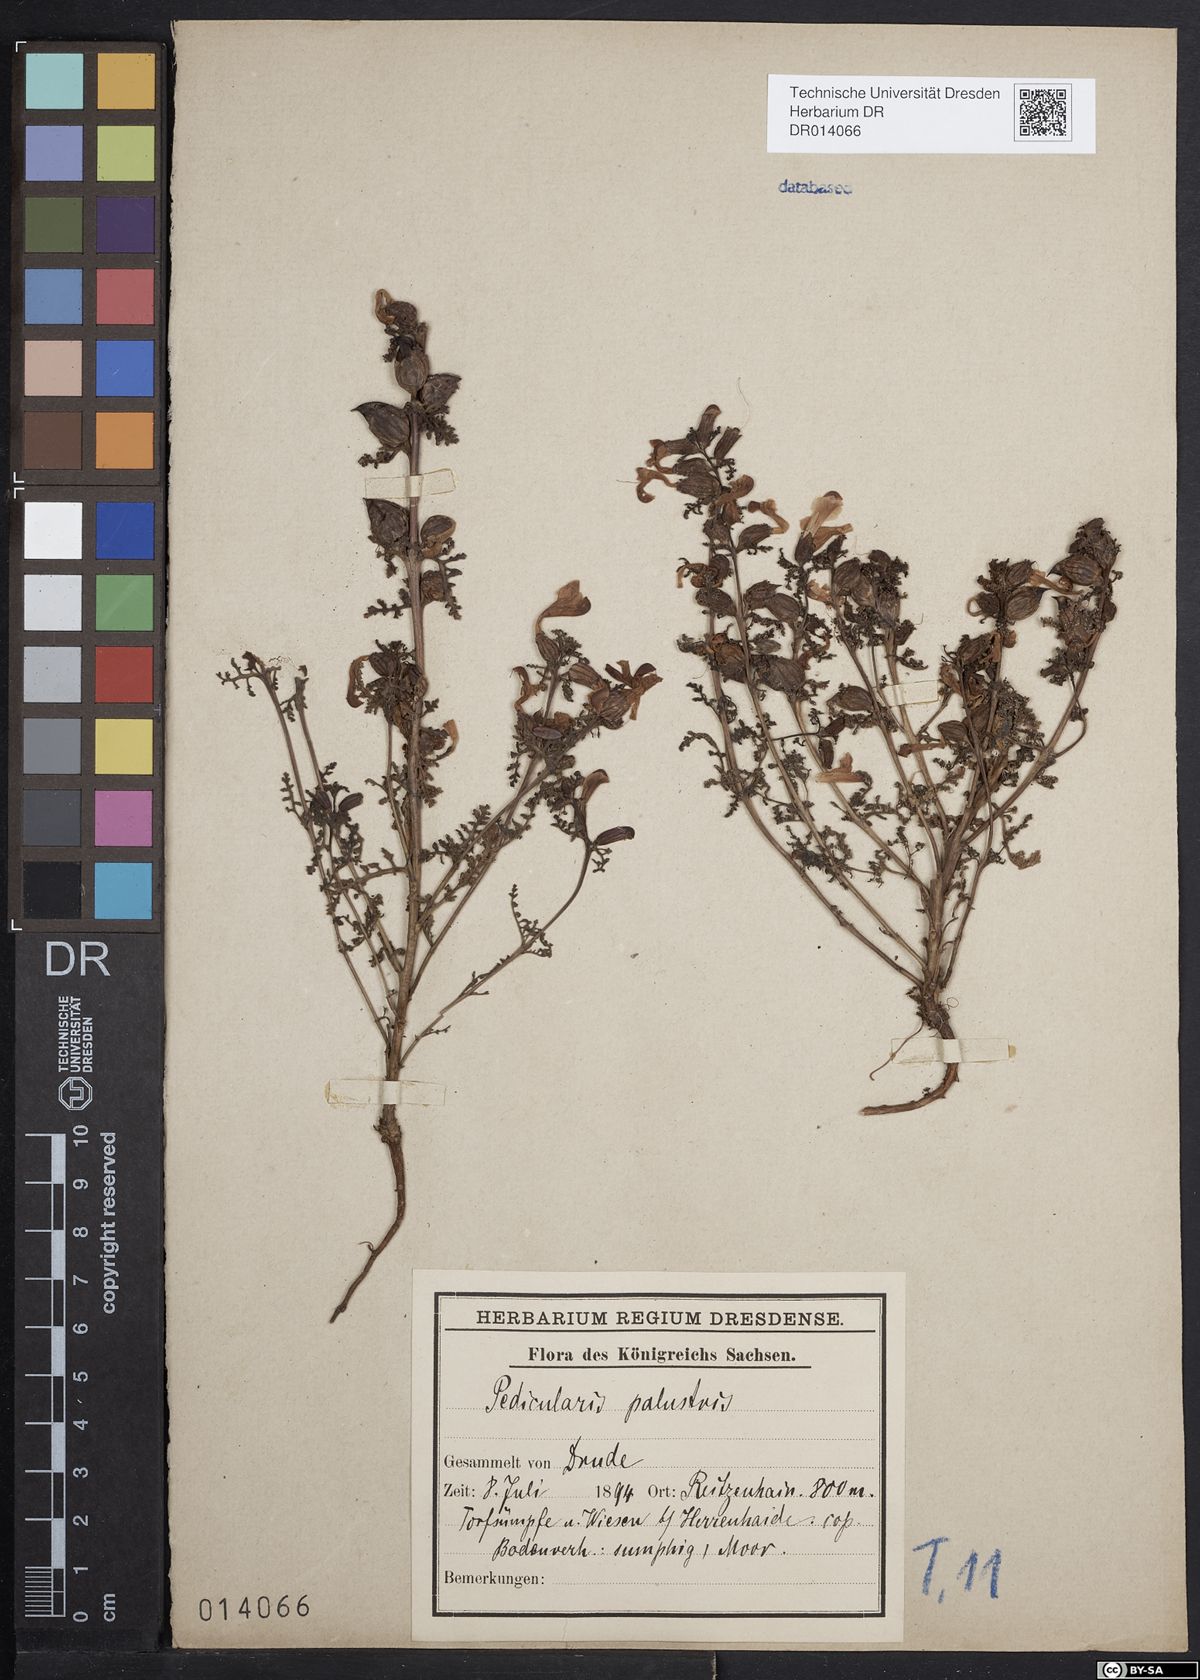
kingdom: Plantae
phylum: Tracheophyta
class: Magnoliopsida
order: Lamiales
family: Orobanchaceae
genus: Pedicularis
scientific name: Pedicularis palustris
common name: Marsh lousewort
